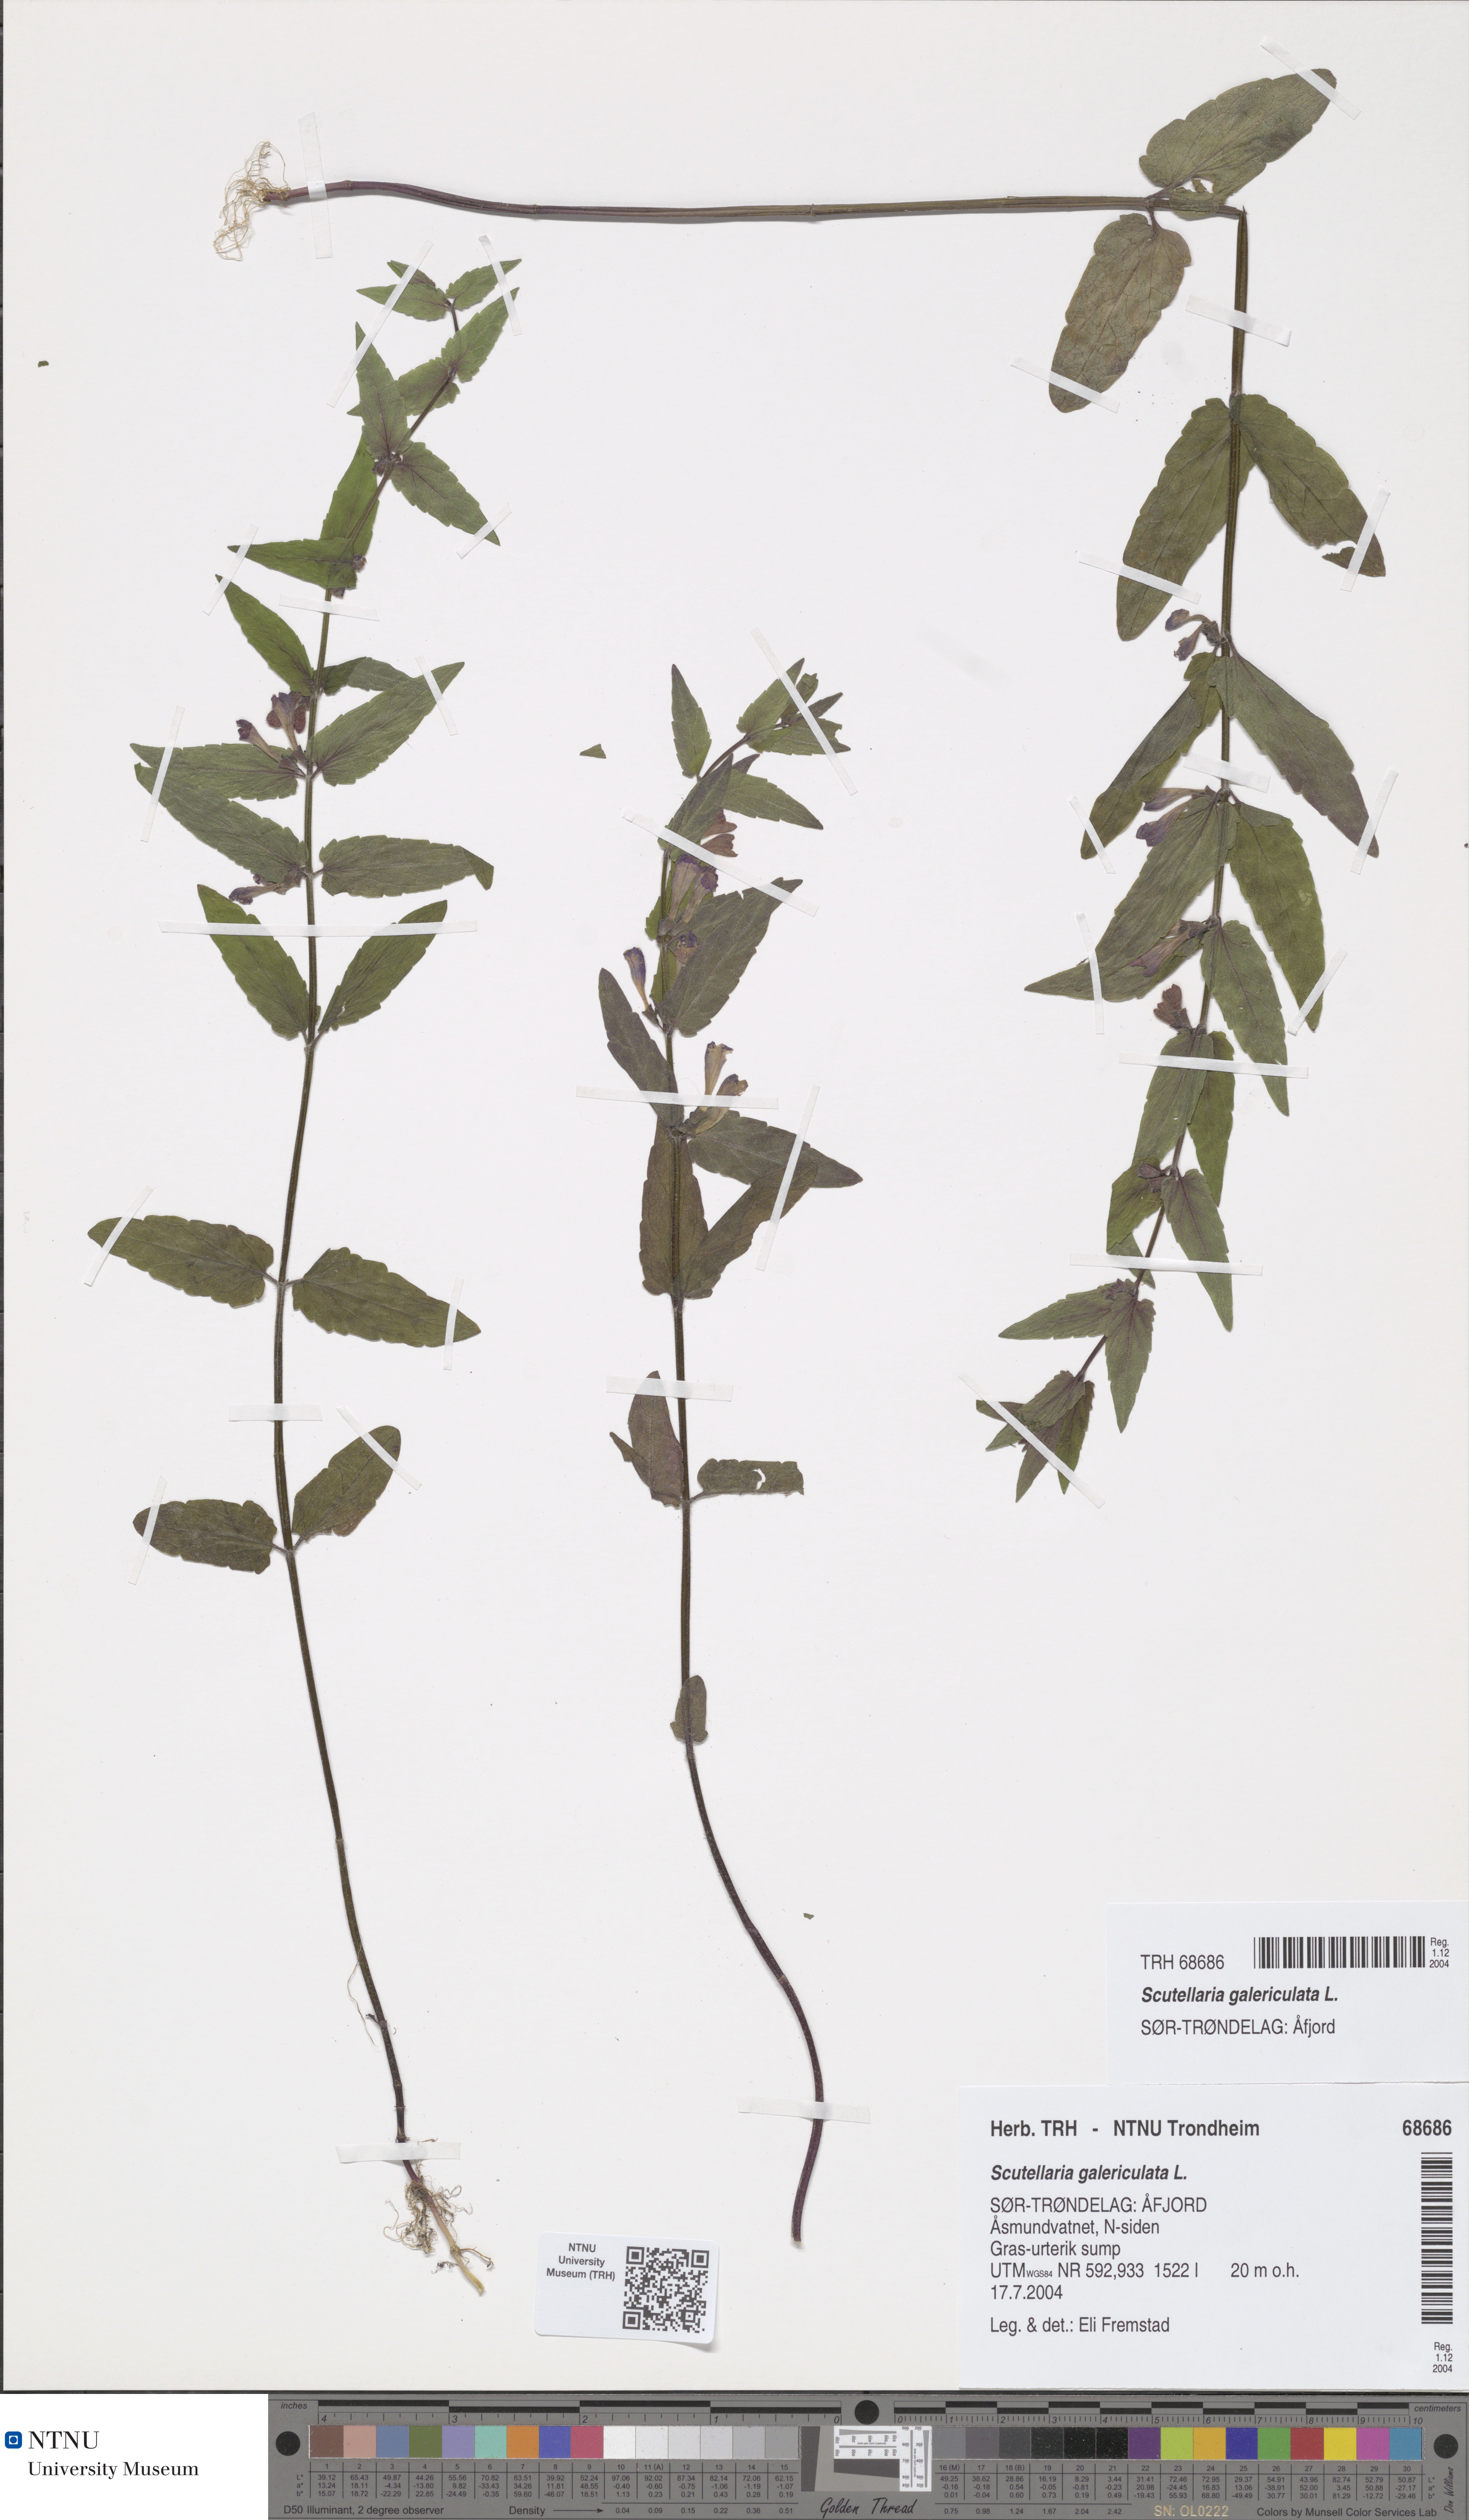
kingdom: Plantae
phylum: Tracheophyta
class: Magnoliopsida
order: Lamiales
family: Lamiaceae
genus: Scutellaria
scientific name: Scutellaria galericulata
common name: Skullcap
